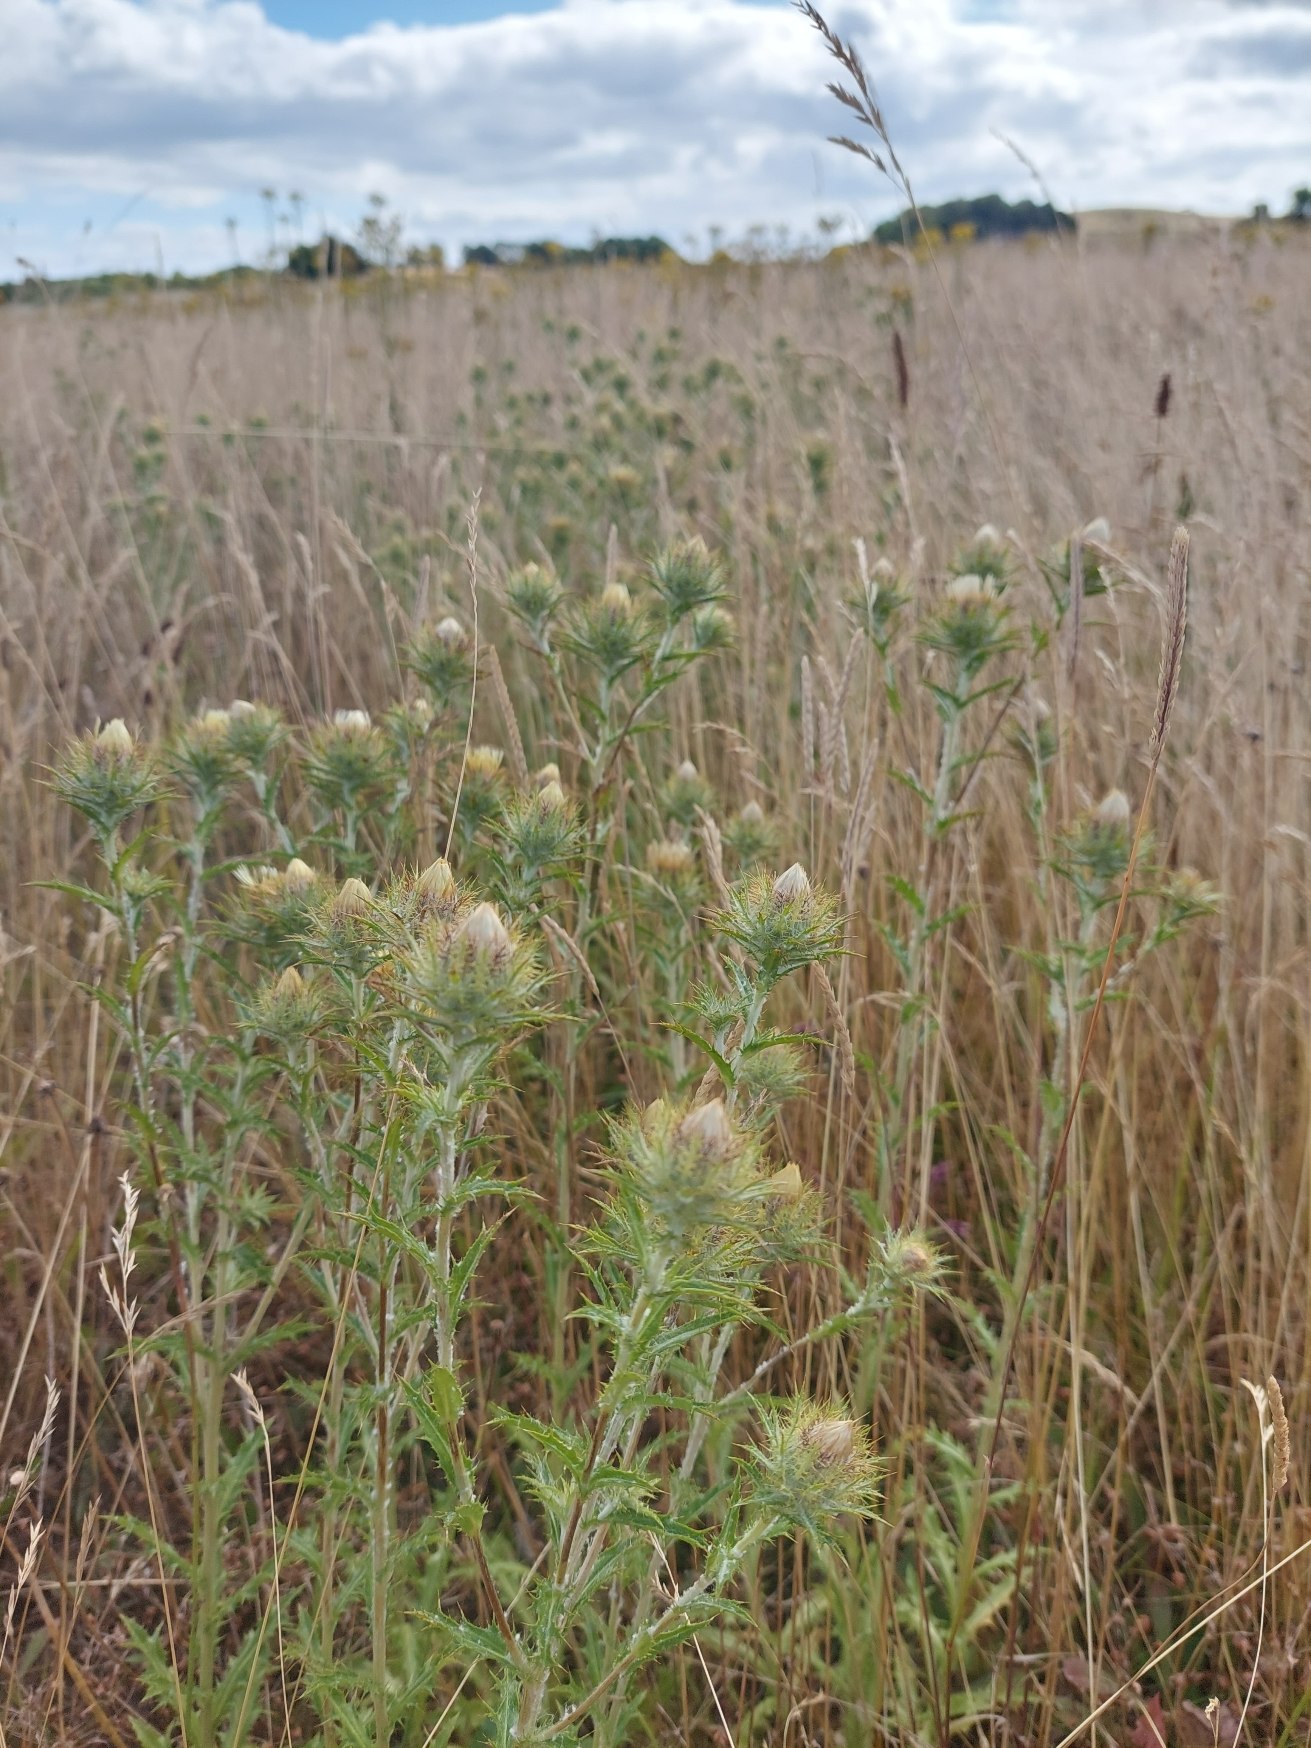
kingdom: Plantae
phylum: Tracheophyta
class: Magnoliopsida
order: Asterales
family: Asteraceae
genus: Carlina
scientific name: Carlina vulgaris
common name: Bakketidsel
